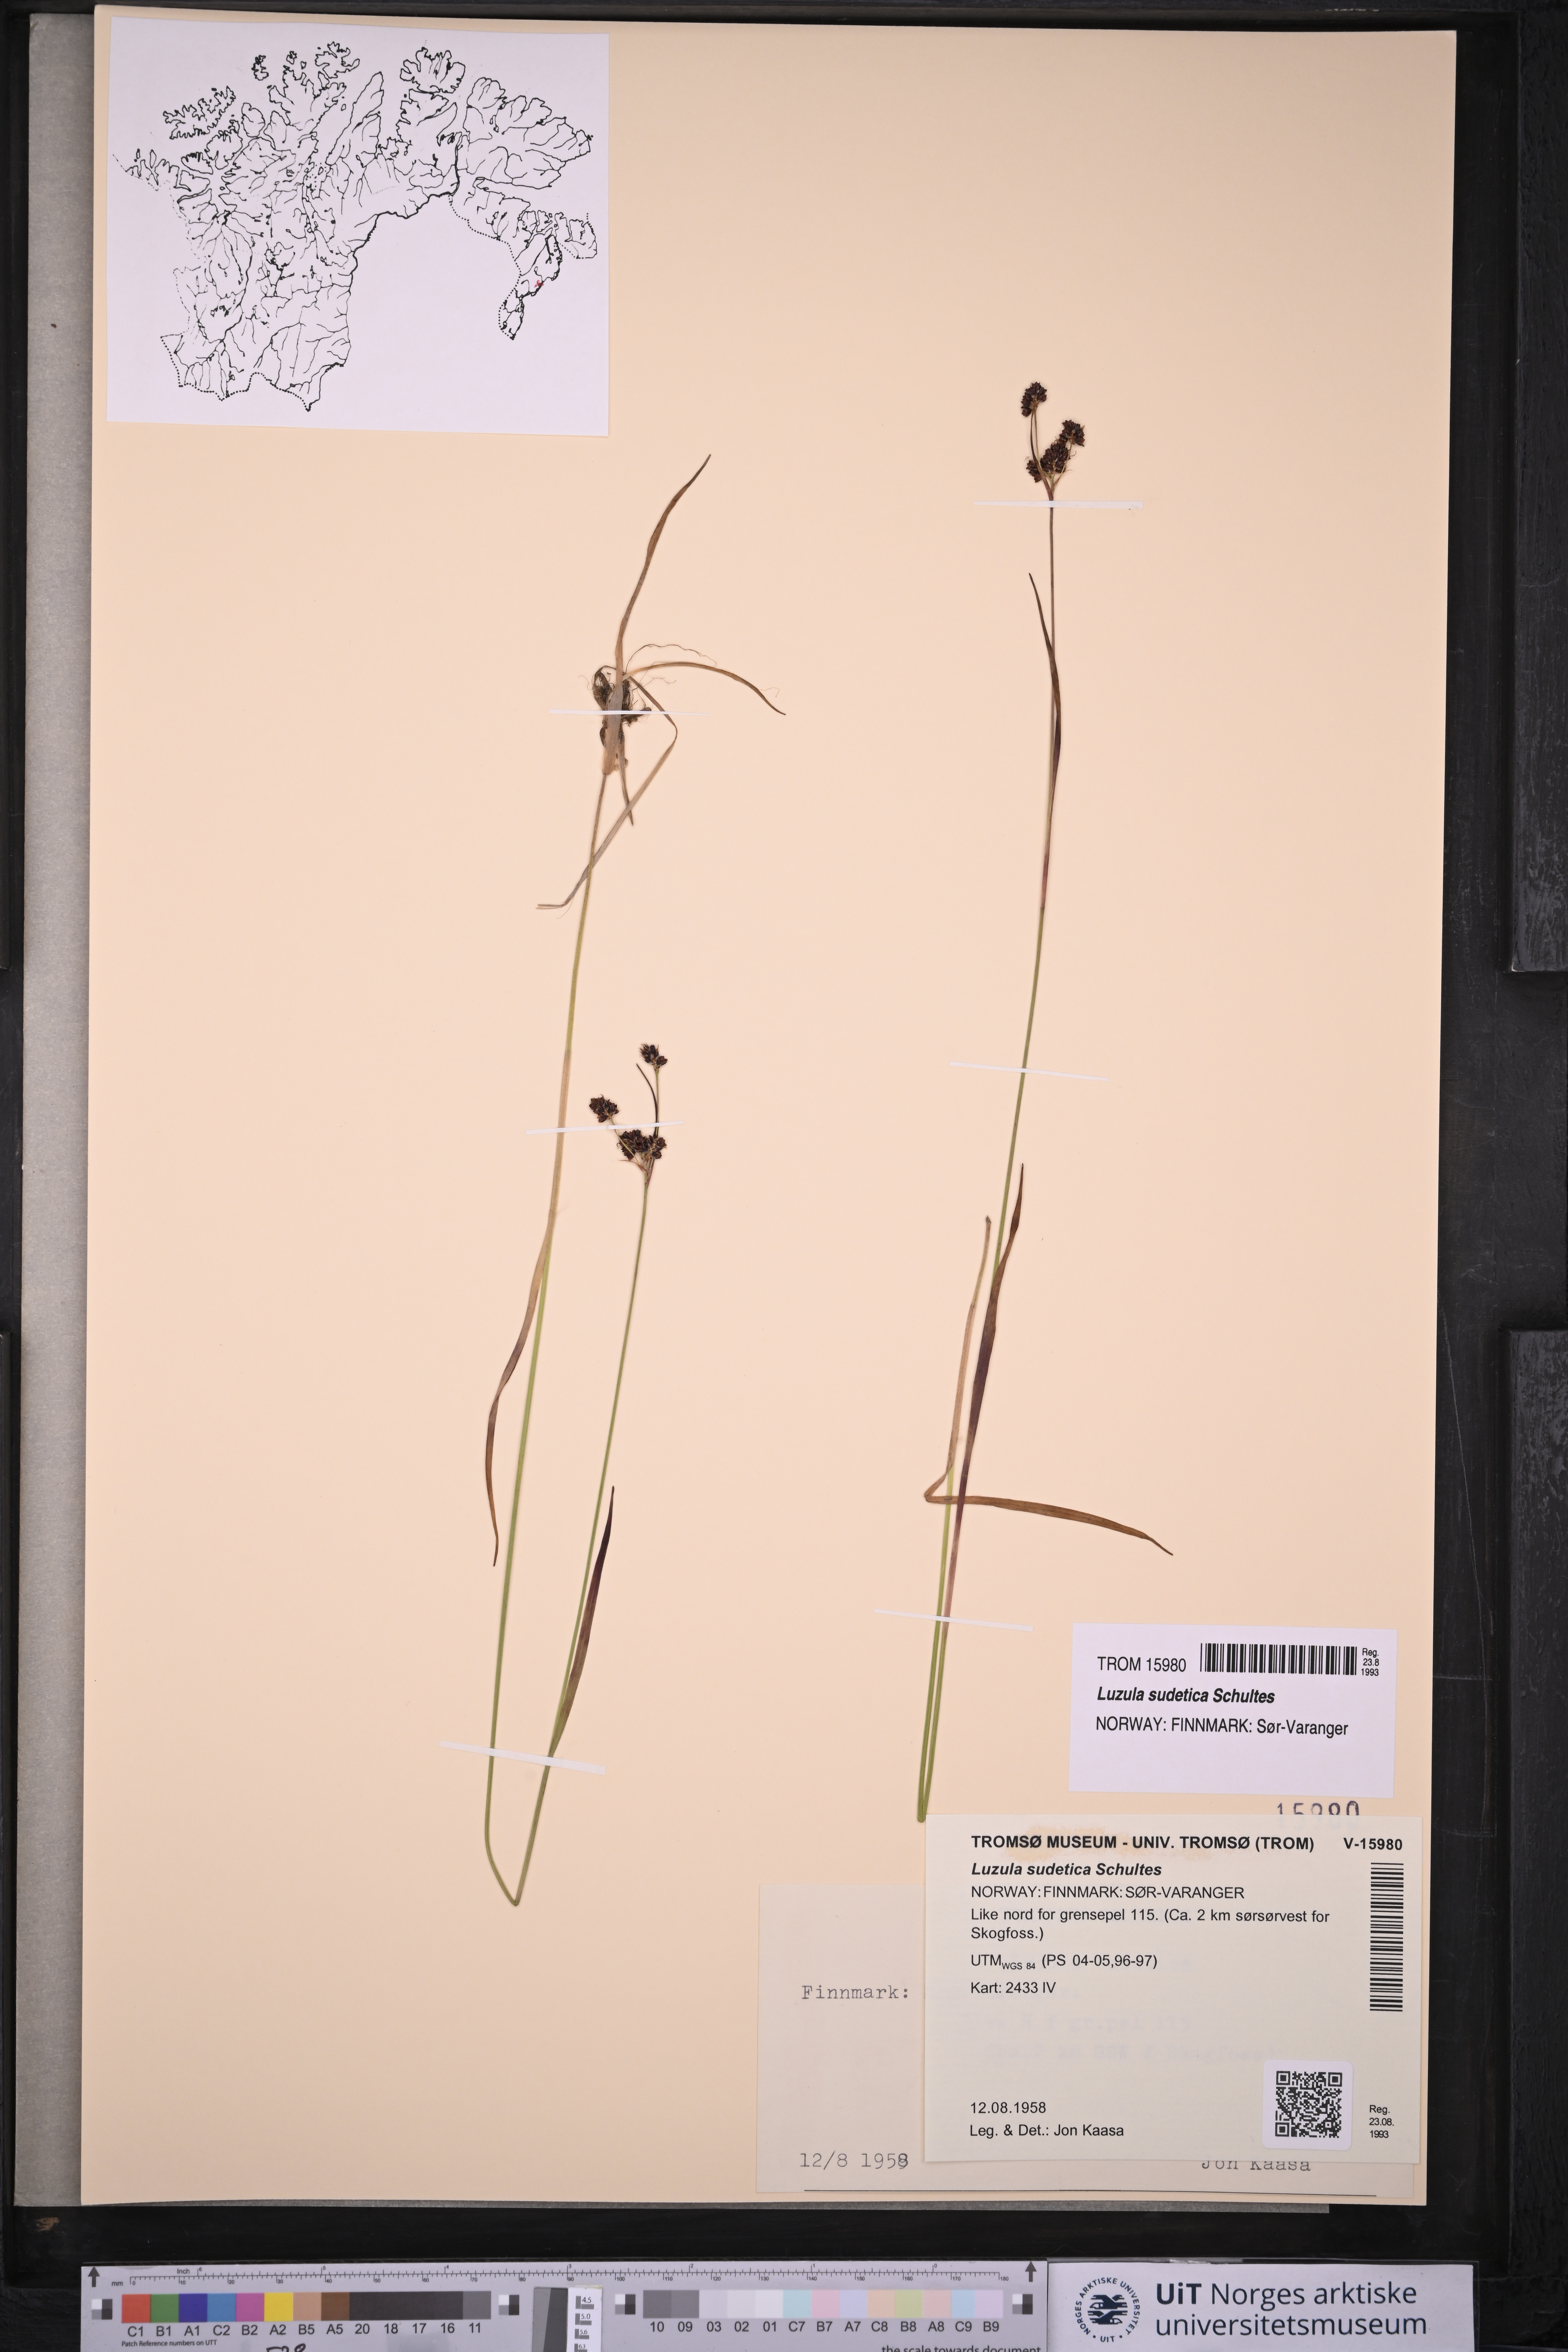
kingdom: Plantae
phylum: Tracheophyta
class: Liliopsida
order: Poales
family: Juncaceae
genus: Luzula
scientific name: Luzula sudetica
